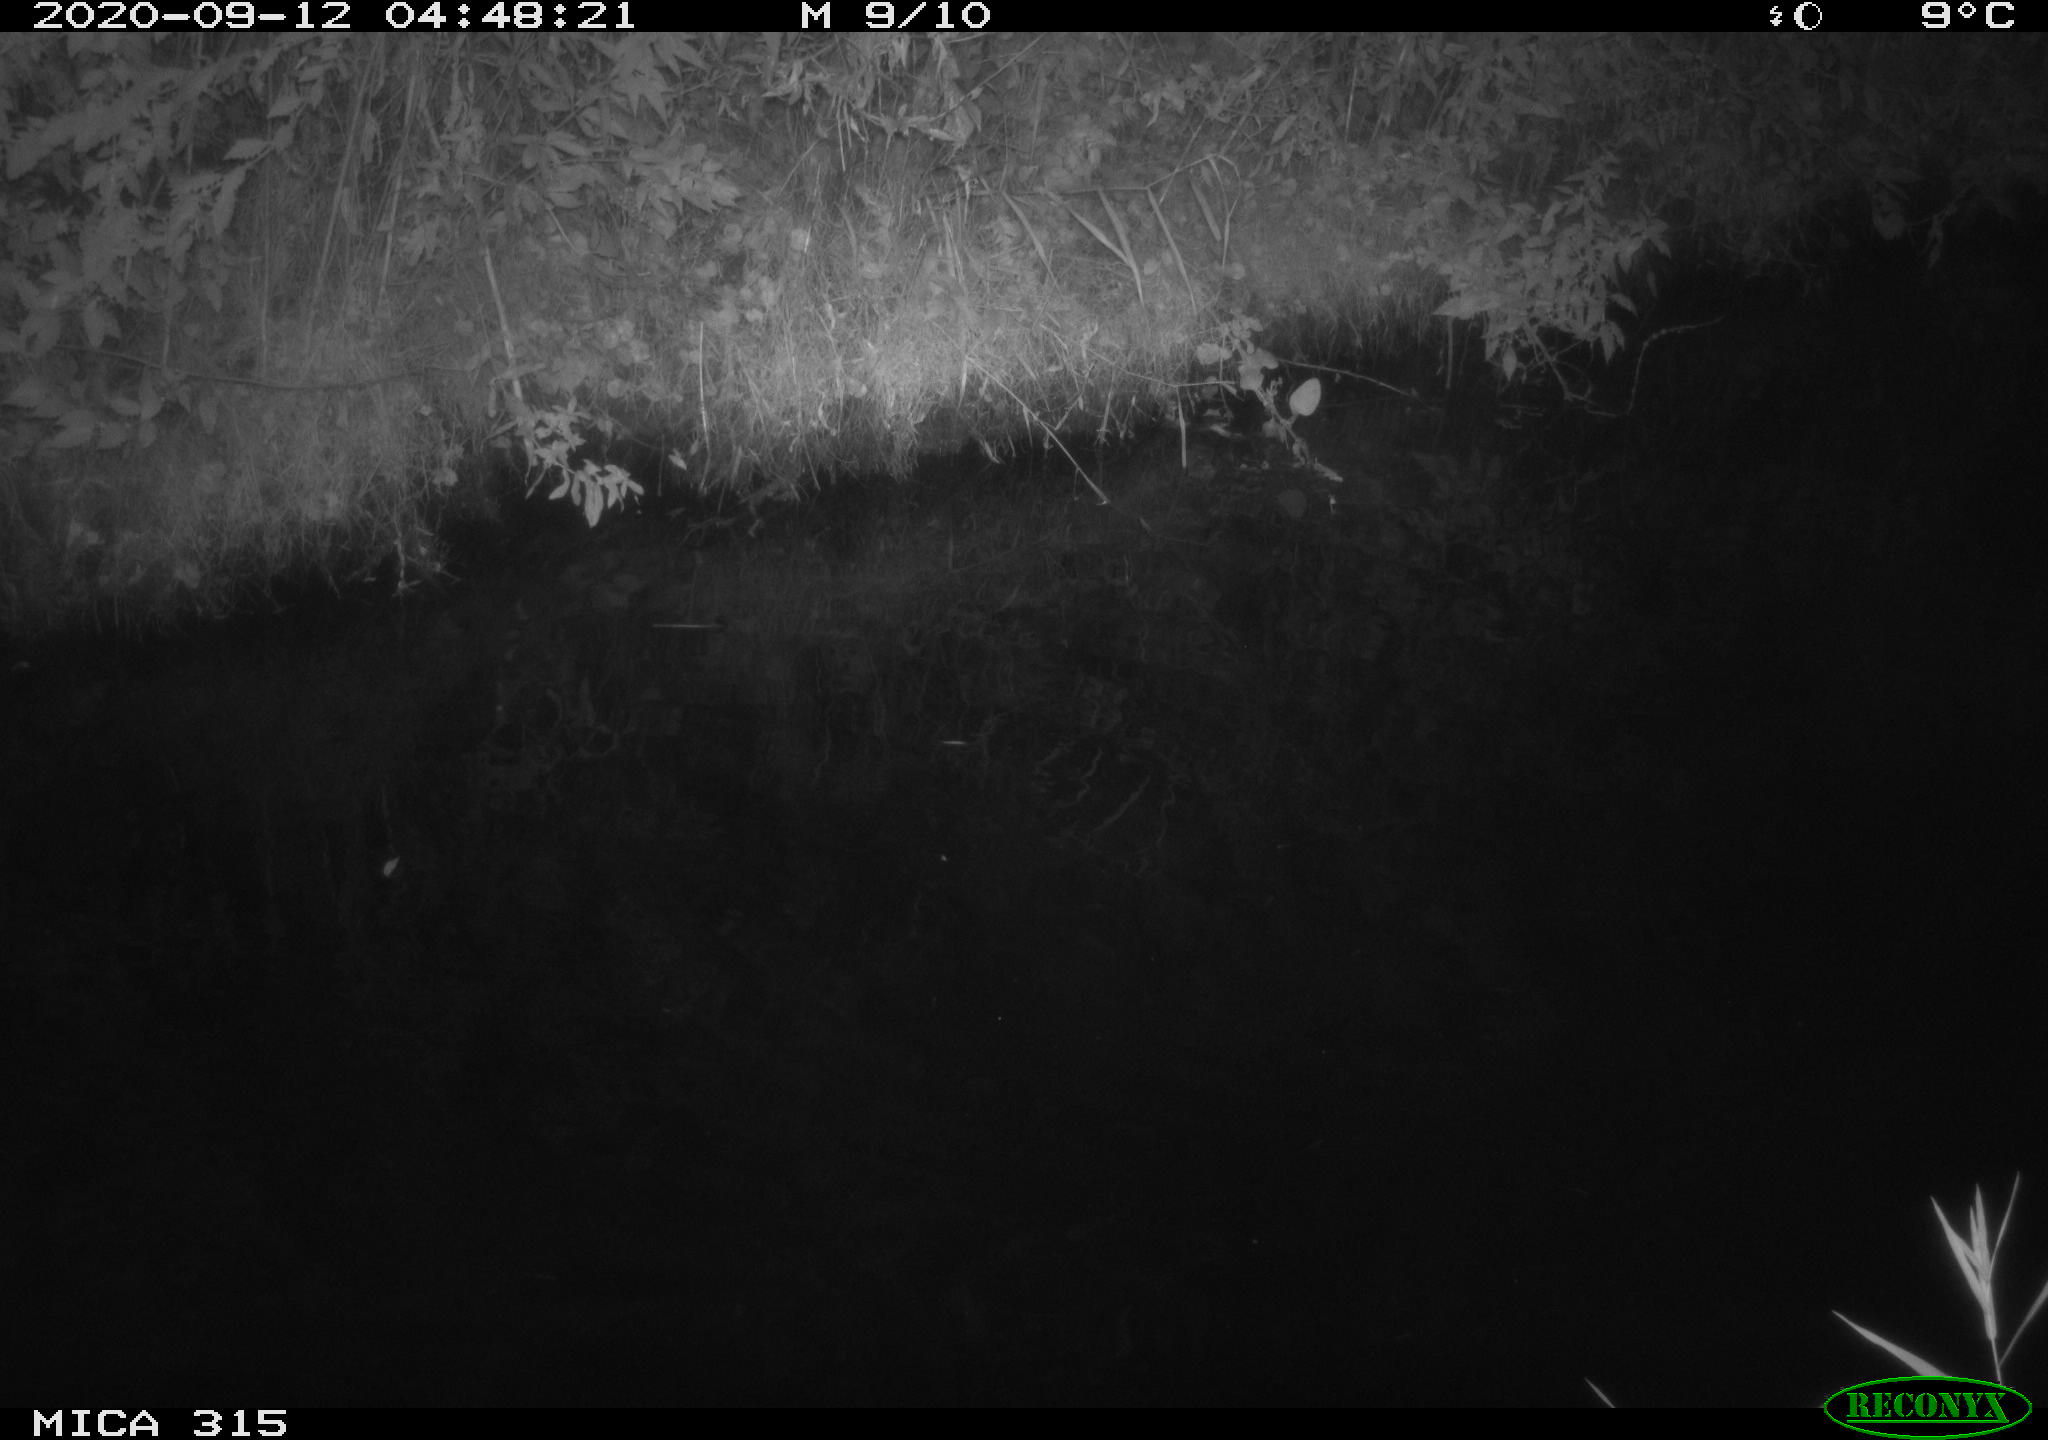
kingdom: Animalia
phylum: Chordata
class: Aves
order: Anseriformes
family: Anatidae
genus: Anas
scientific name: Anas platyrhynchos
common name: Mallard
